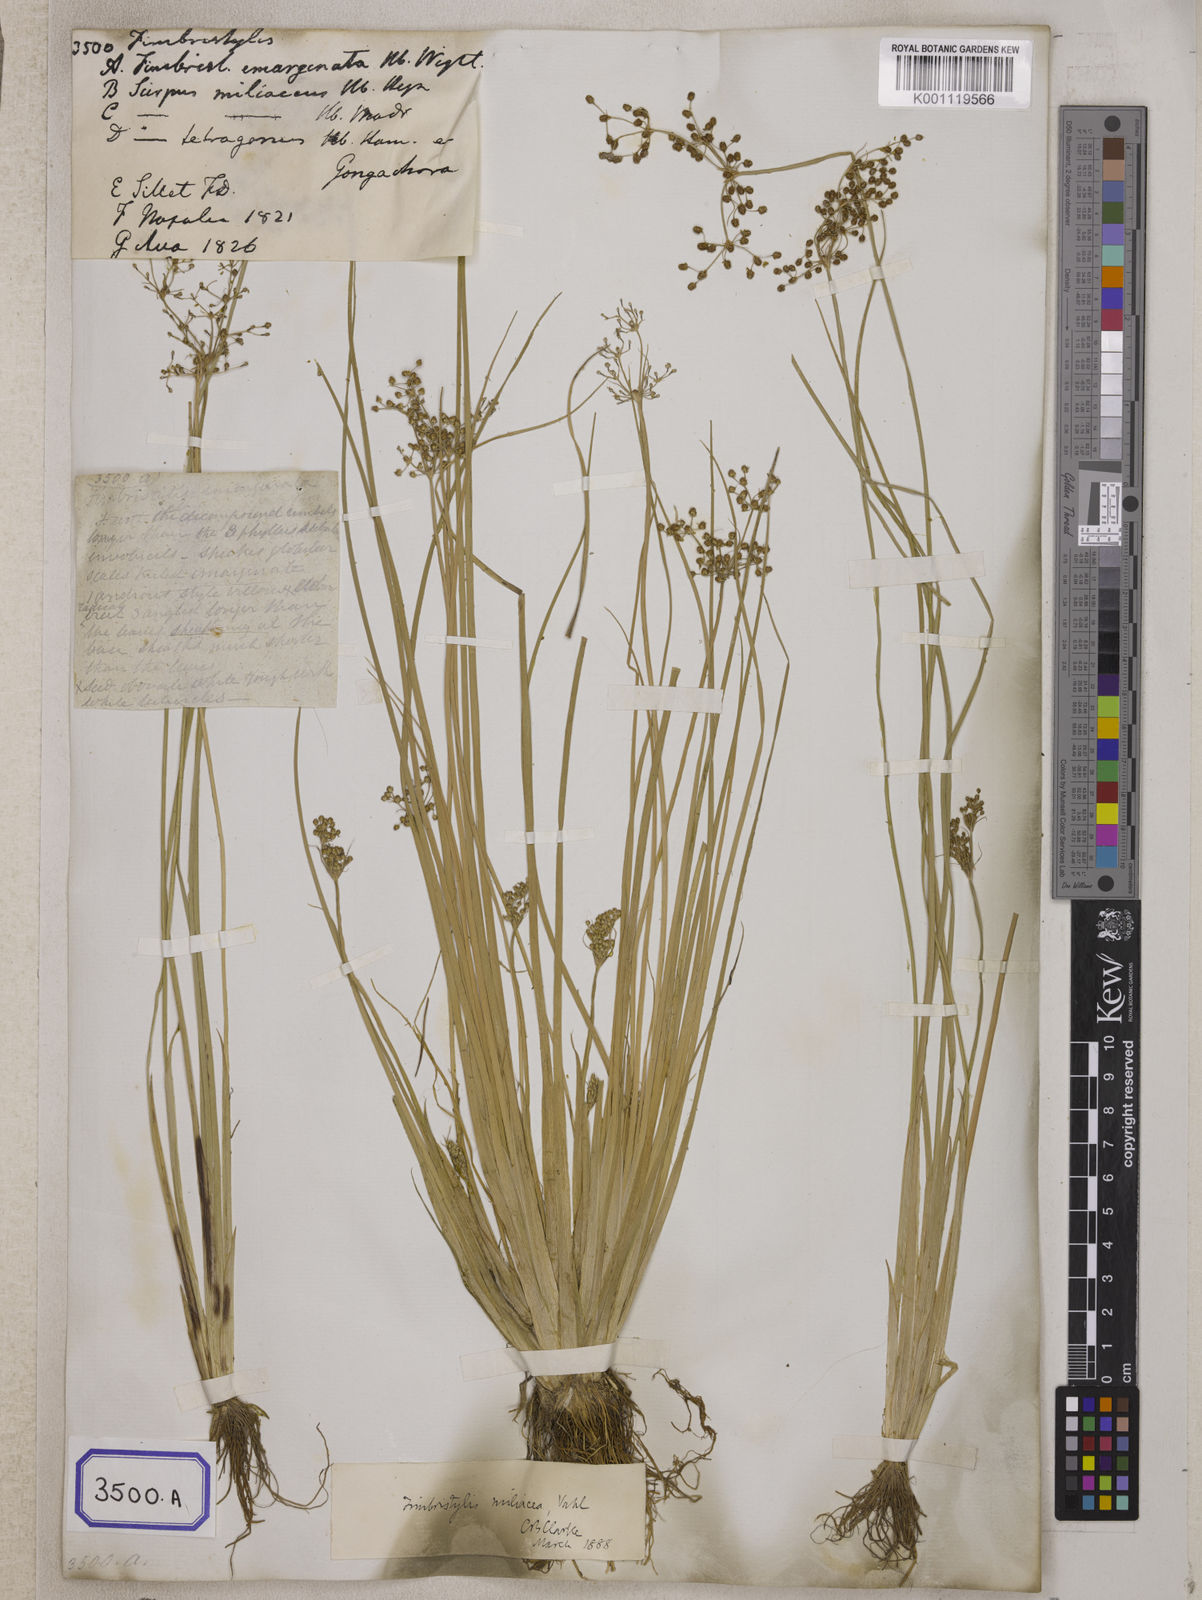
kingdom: Plantae
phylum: Tracheophyta
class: Liliopsida
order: Poales
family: Cyperaceae
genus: Fimbristylis
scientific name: Fimbristylis
